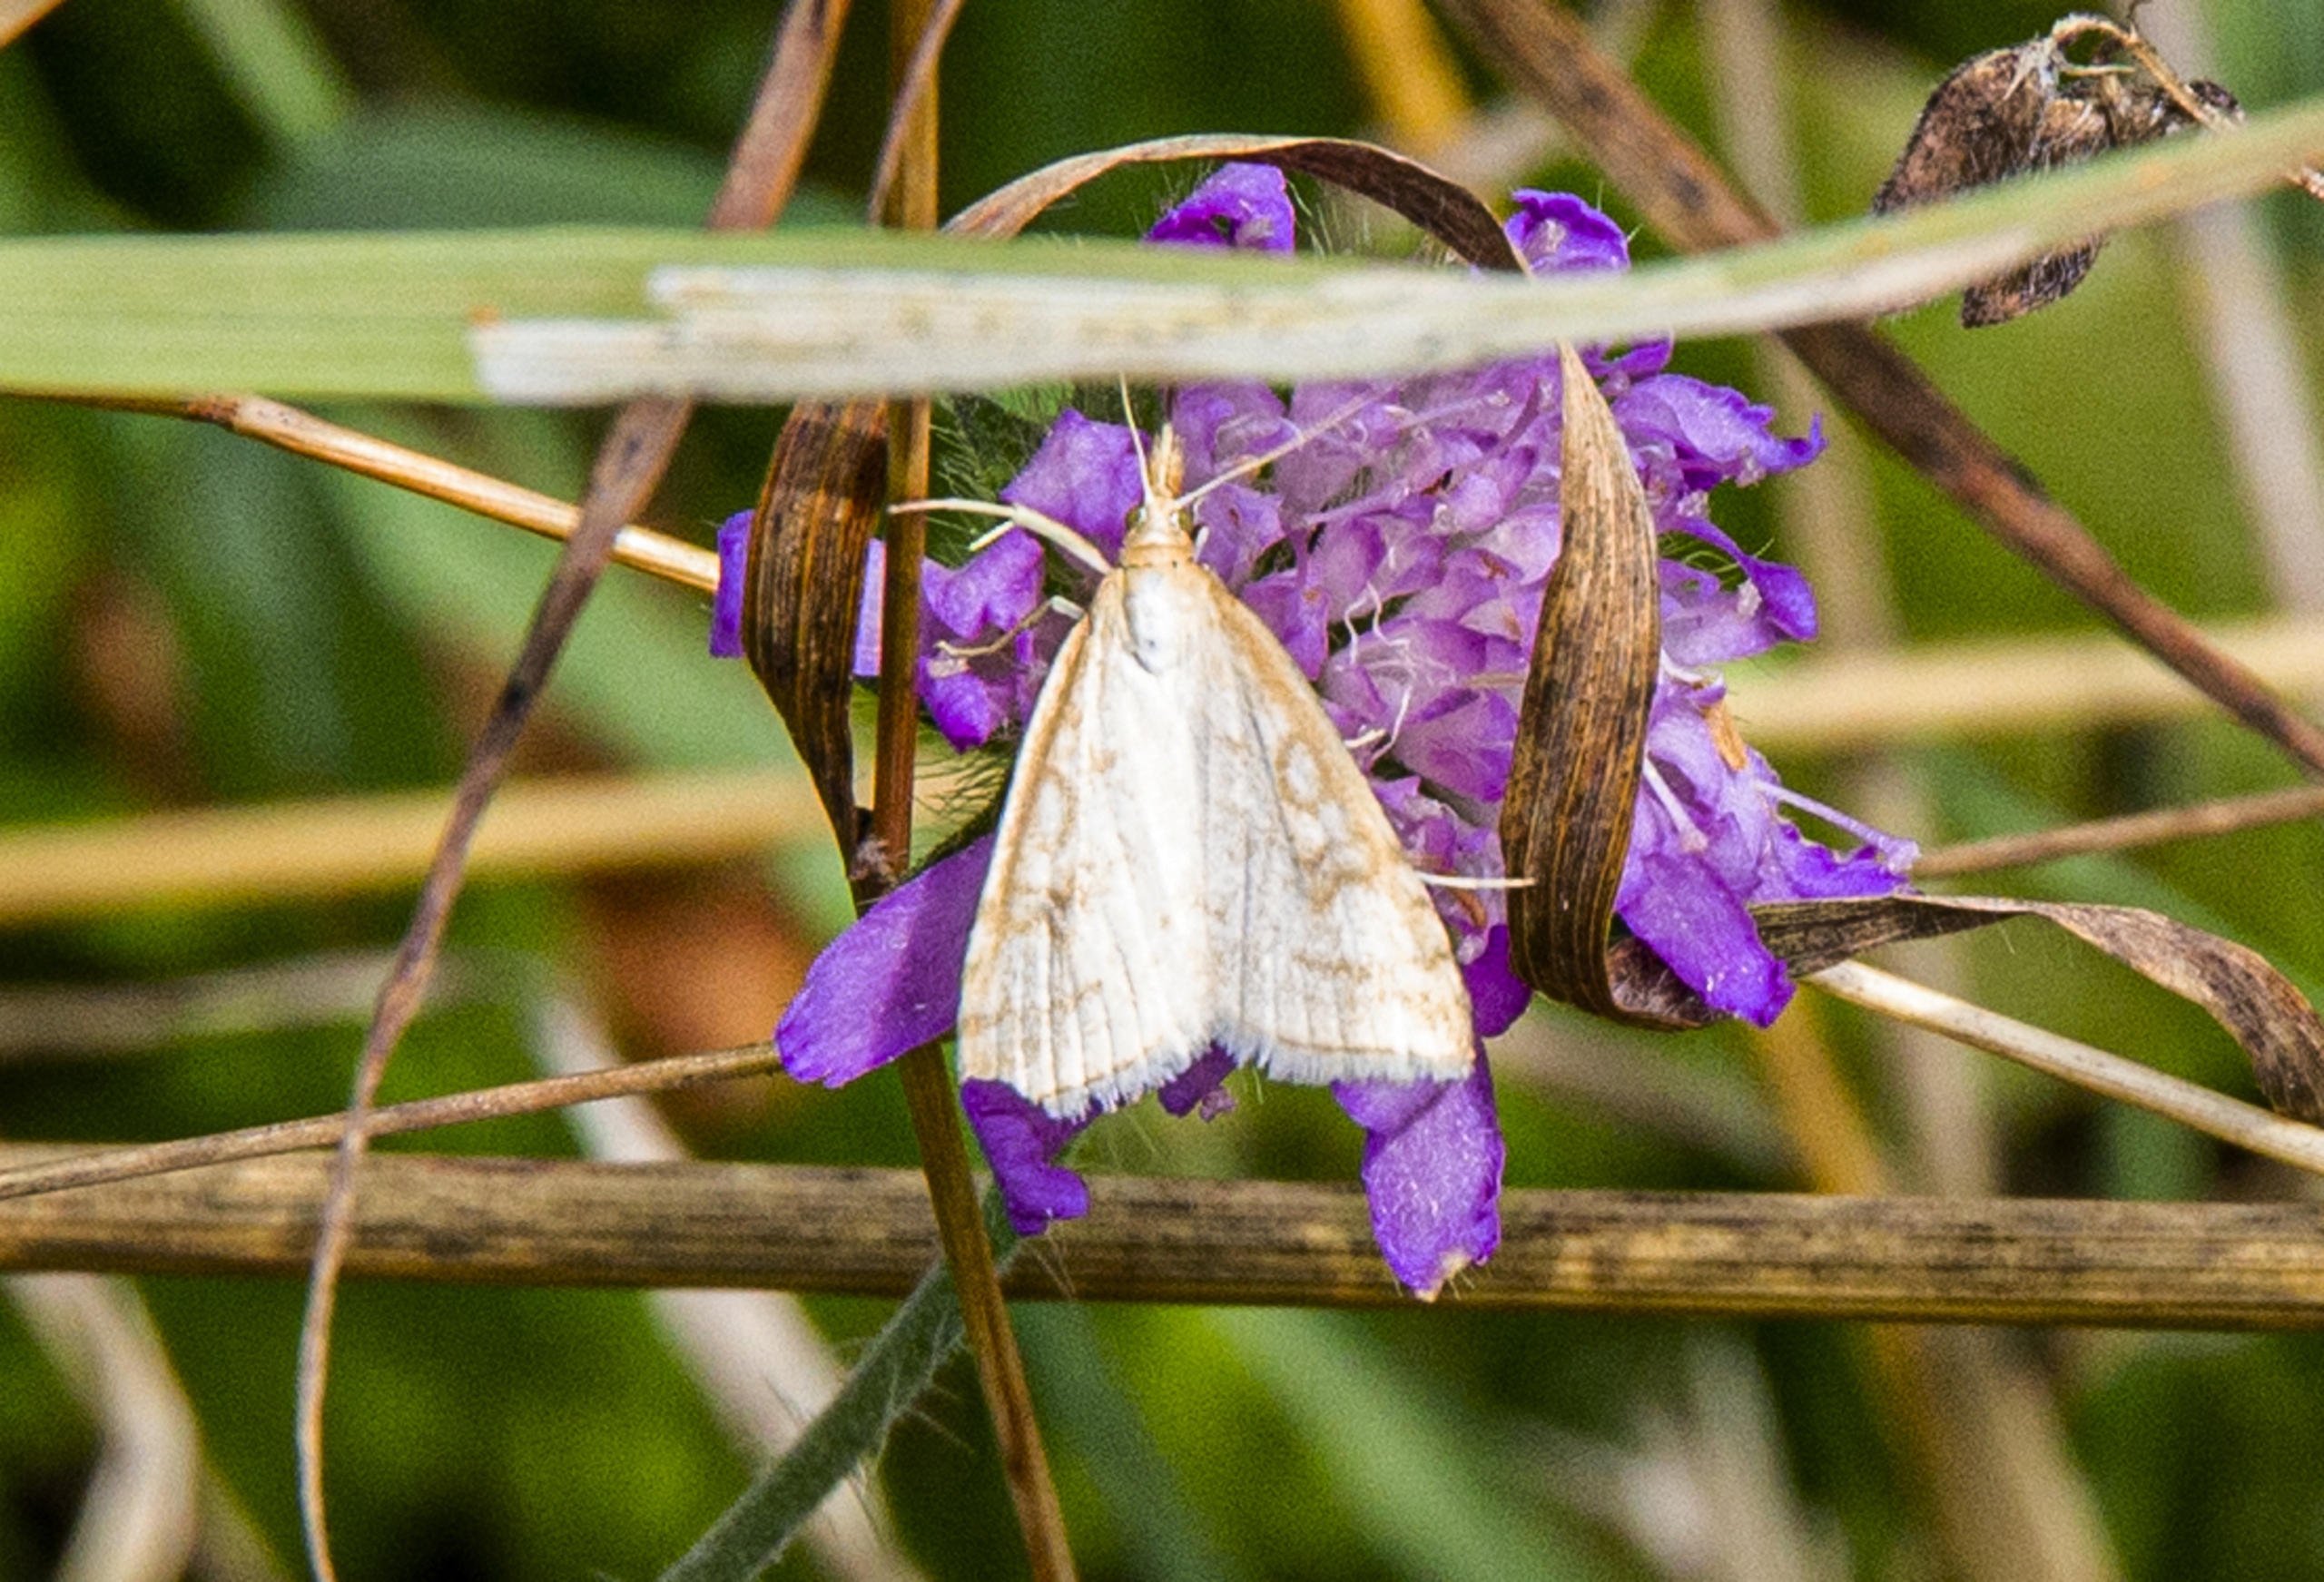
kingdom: Animalia
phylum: Arthropoda
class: Insecta
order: Lepidoptera
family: Crambidae
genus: Udea
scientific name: Udea lutealis
